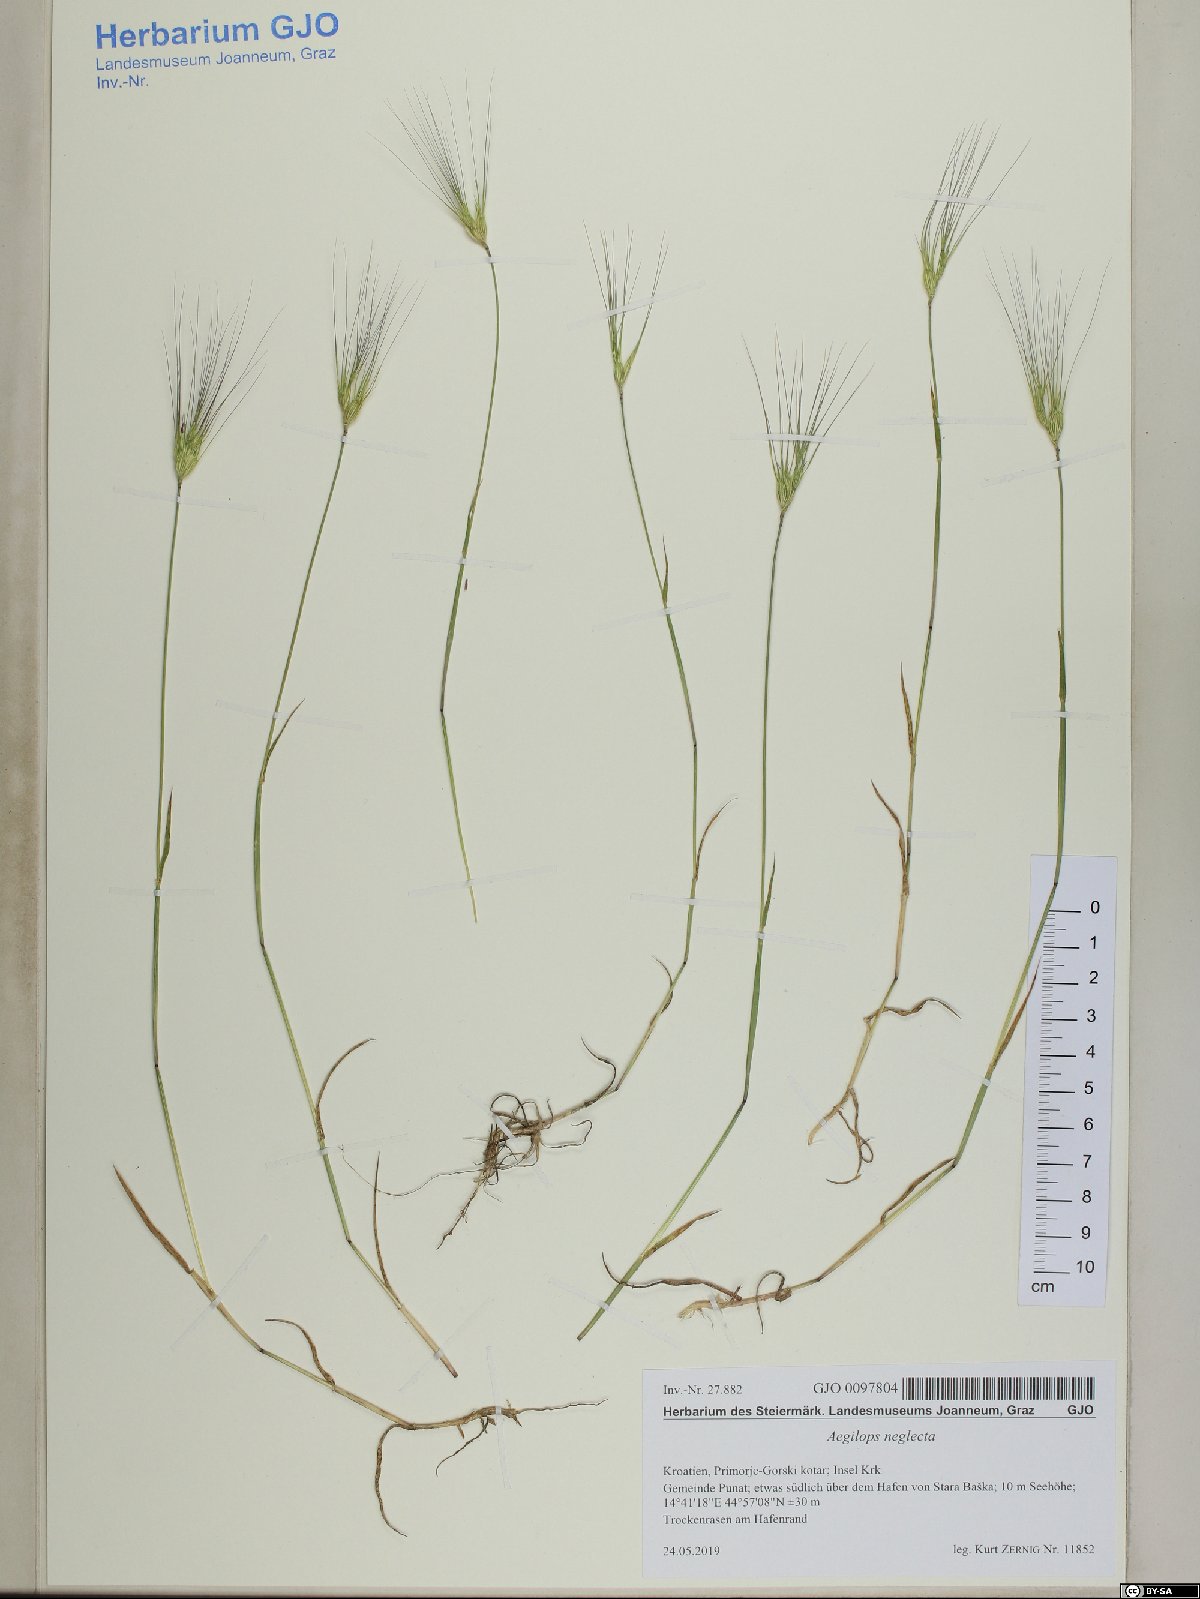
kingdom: Plantae
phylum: Tracheophyta
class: Liliopsida
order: Poales
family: Poaceae
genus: Aegilops
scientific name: Aegilops neglecta
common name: Three-awn goat grass
